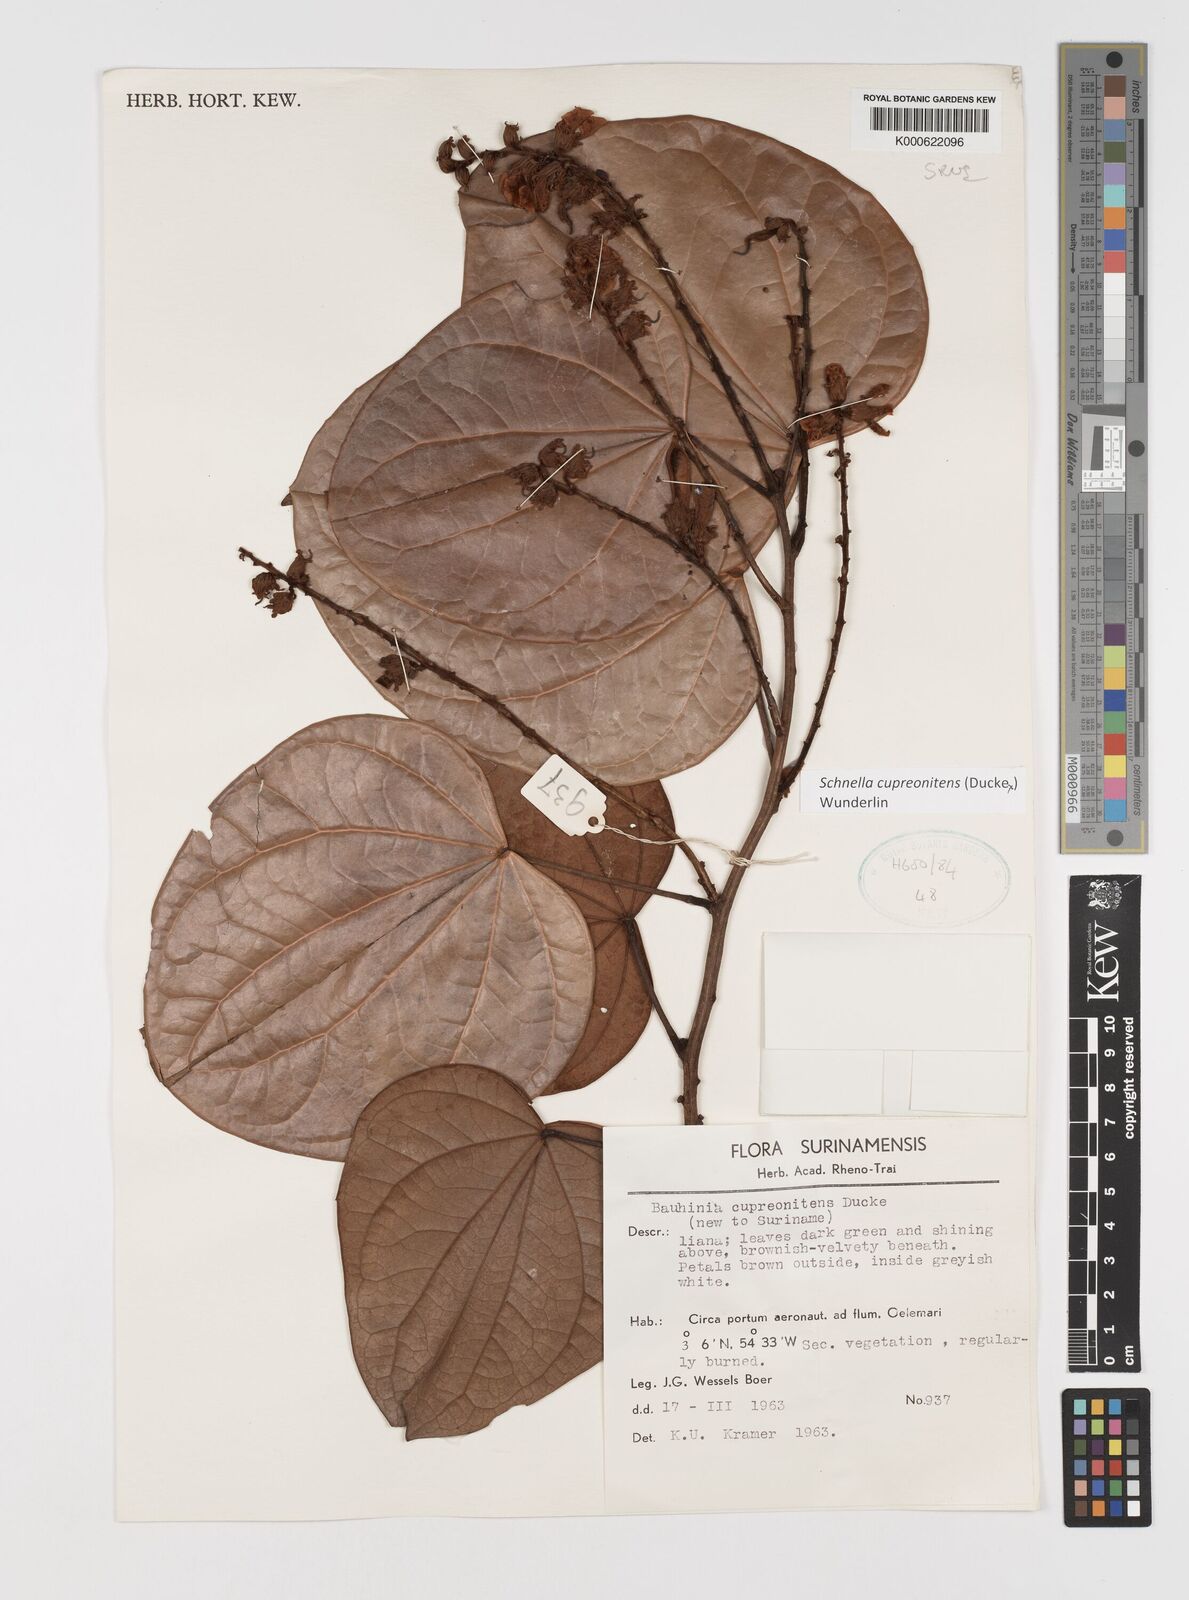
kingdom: Plantae
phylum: Tracheophyta
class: Magnoliopsida
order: Fabales
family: Fabaceae
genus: Schnella
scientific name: Schnella cupreonitens
